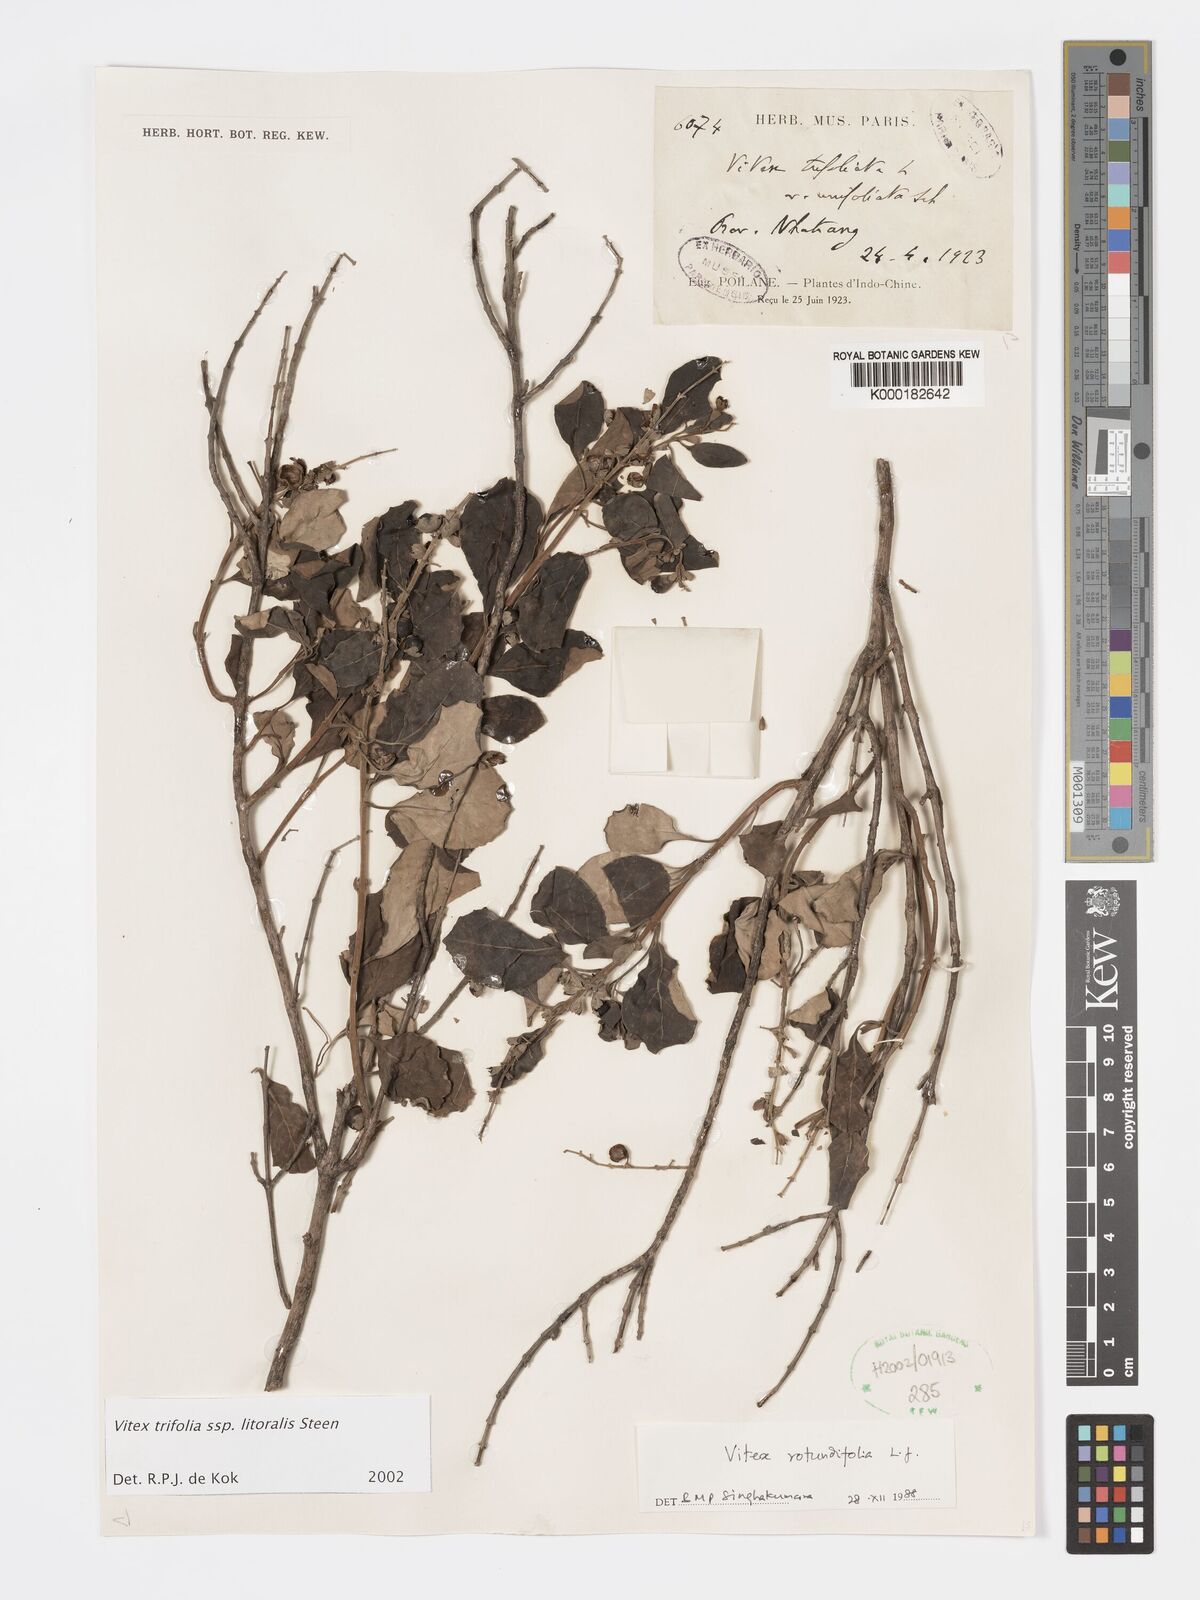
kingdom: Plantae
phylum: Tracheophyta
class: Magnoliopsida
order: Lamiales
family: Lamiaceae
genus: Vitex
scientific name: Vitex rotundifolia
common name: Beach vitex
